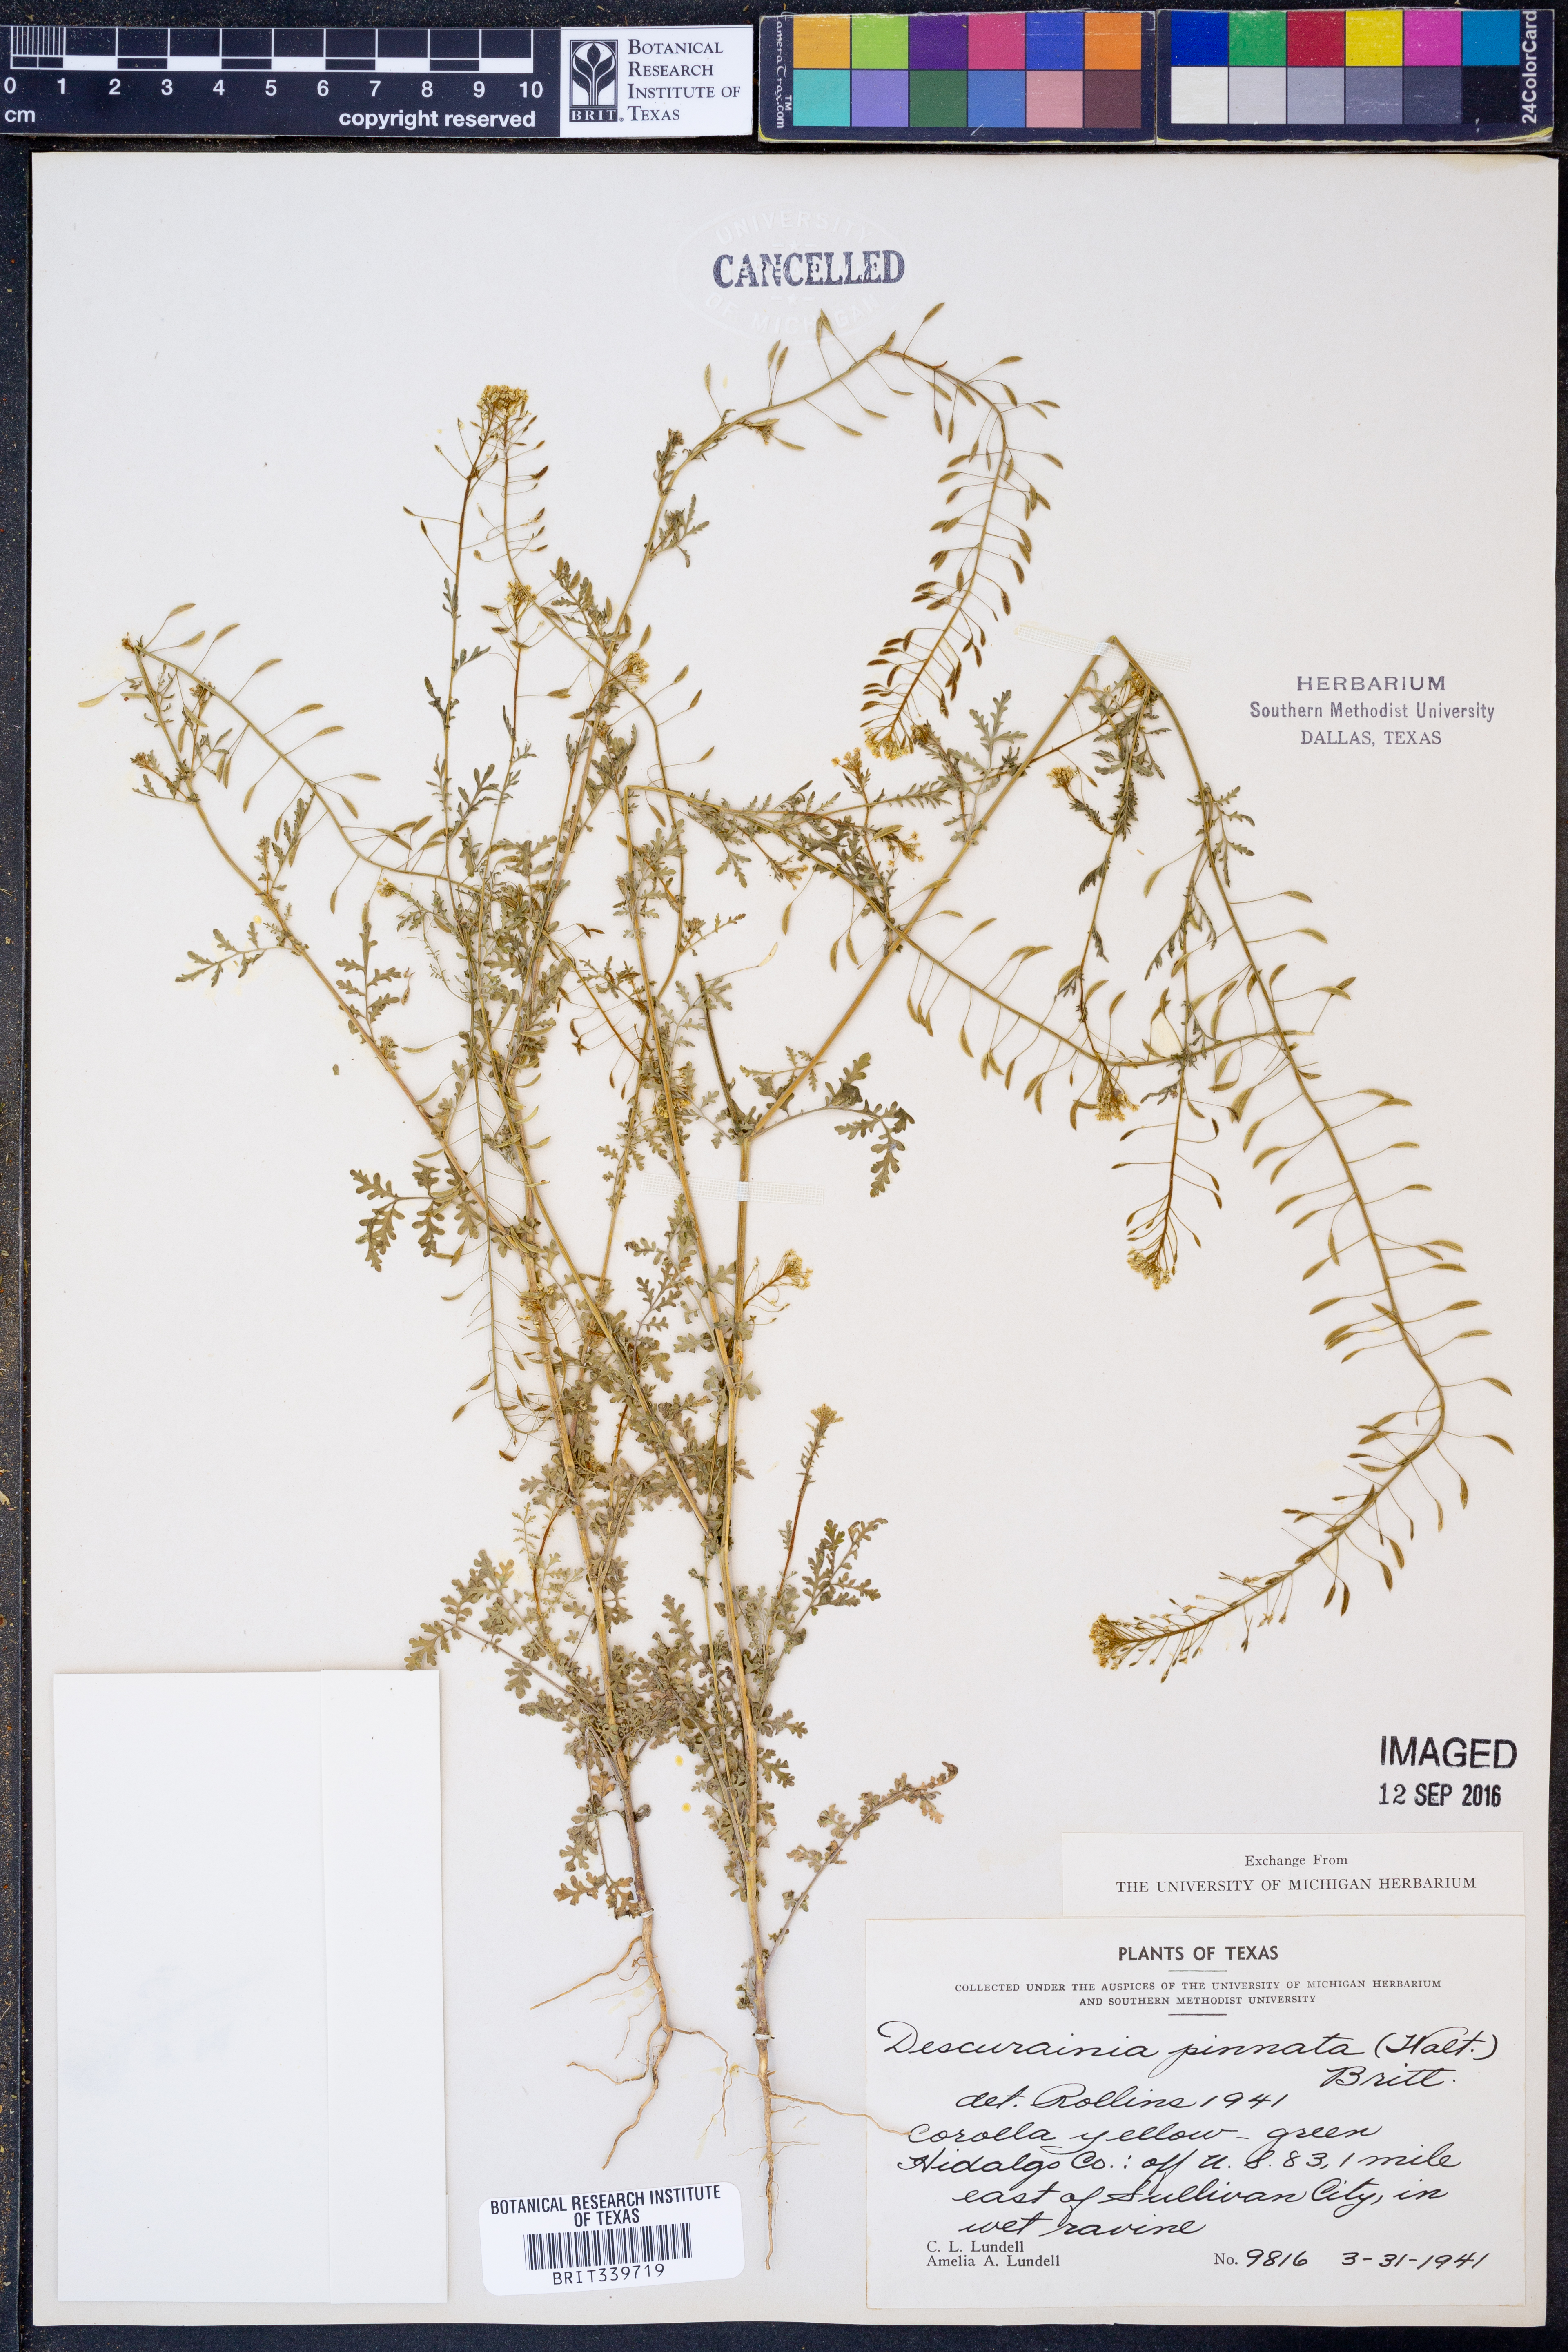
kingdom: Plantae
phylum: Tracheophyta
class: Magnoliopsida
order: Brassicales
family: Brassicaceae
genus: Descurainia
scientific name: Descurainia pinnata
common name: Western tansy mustard
